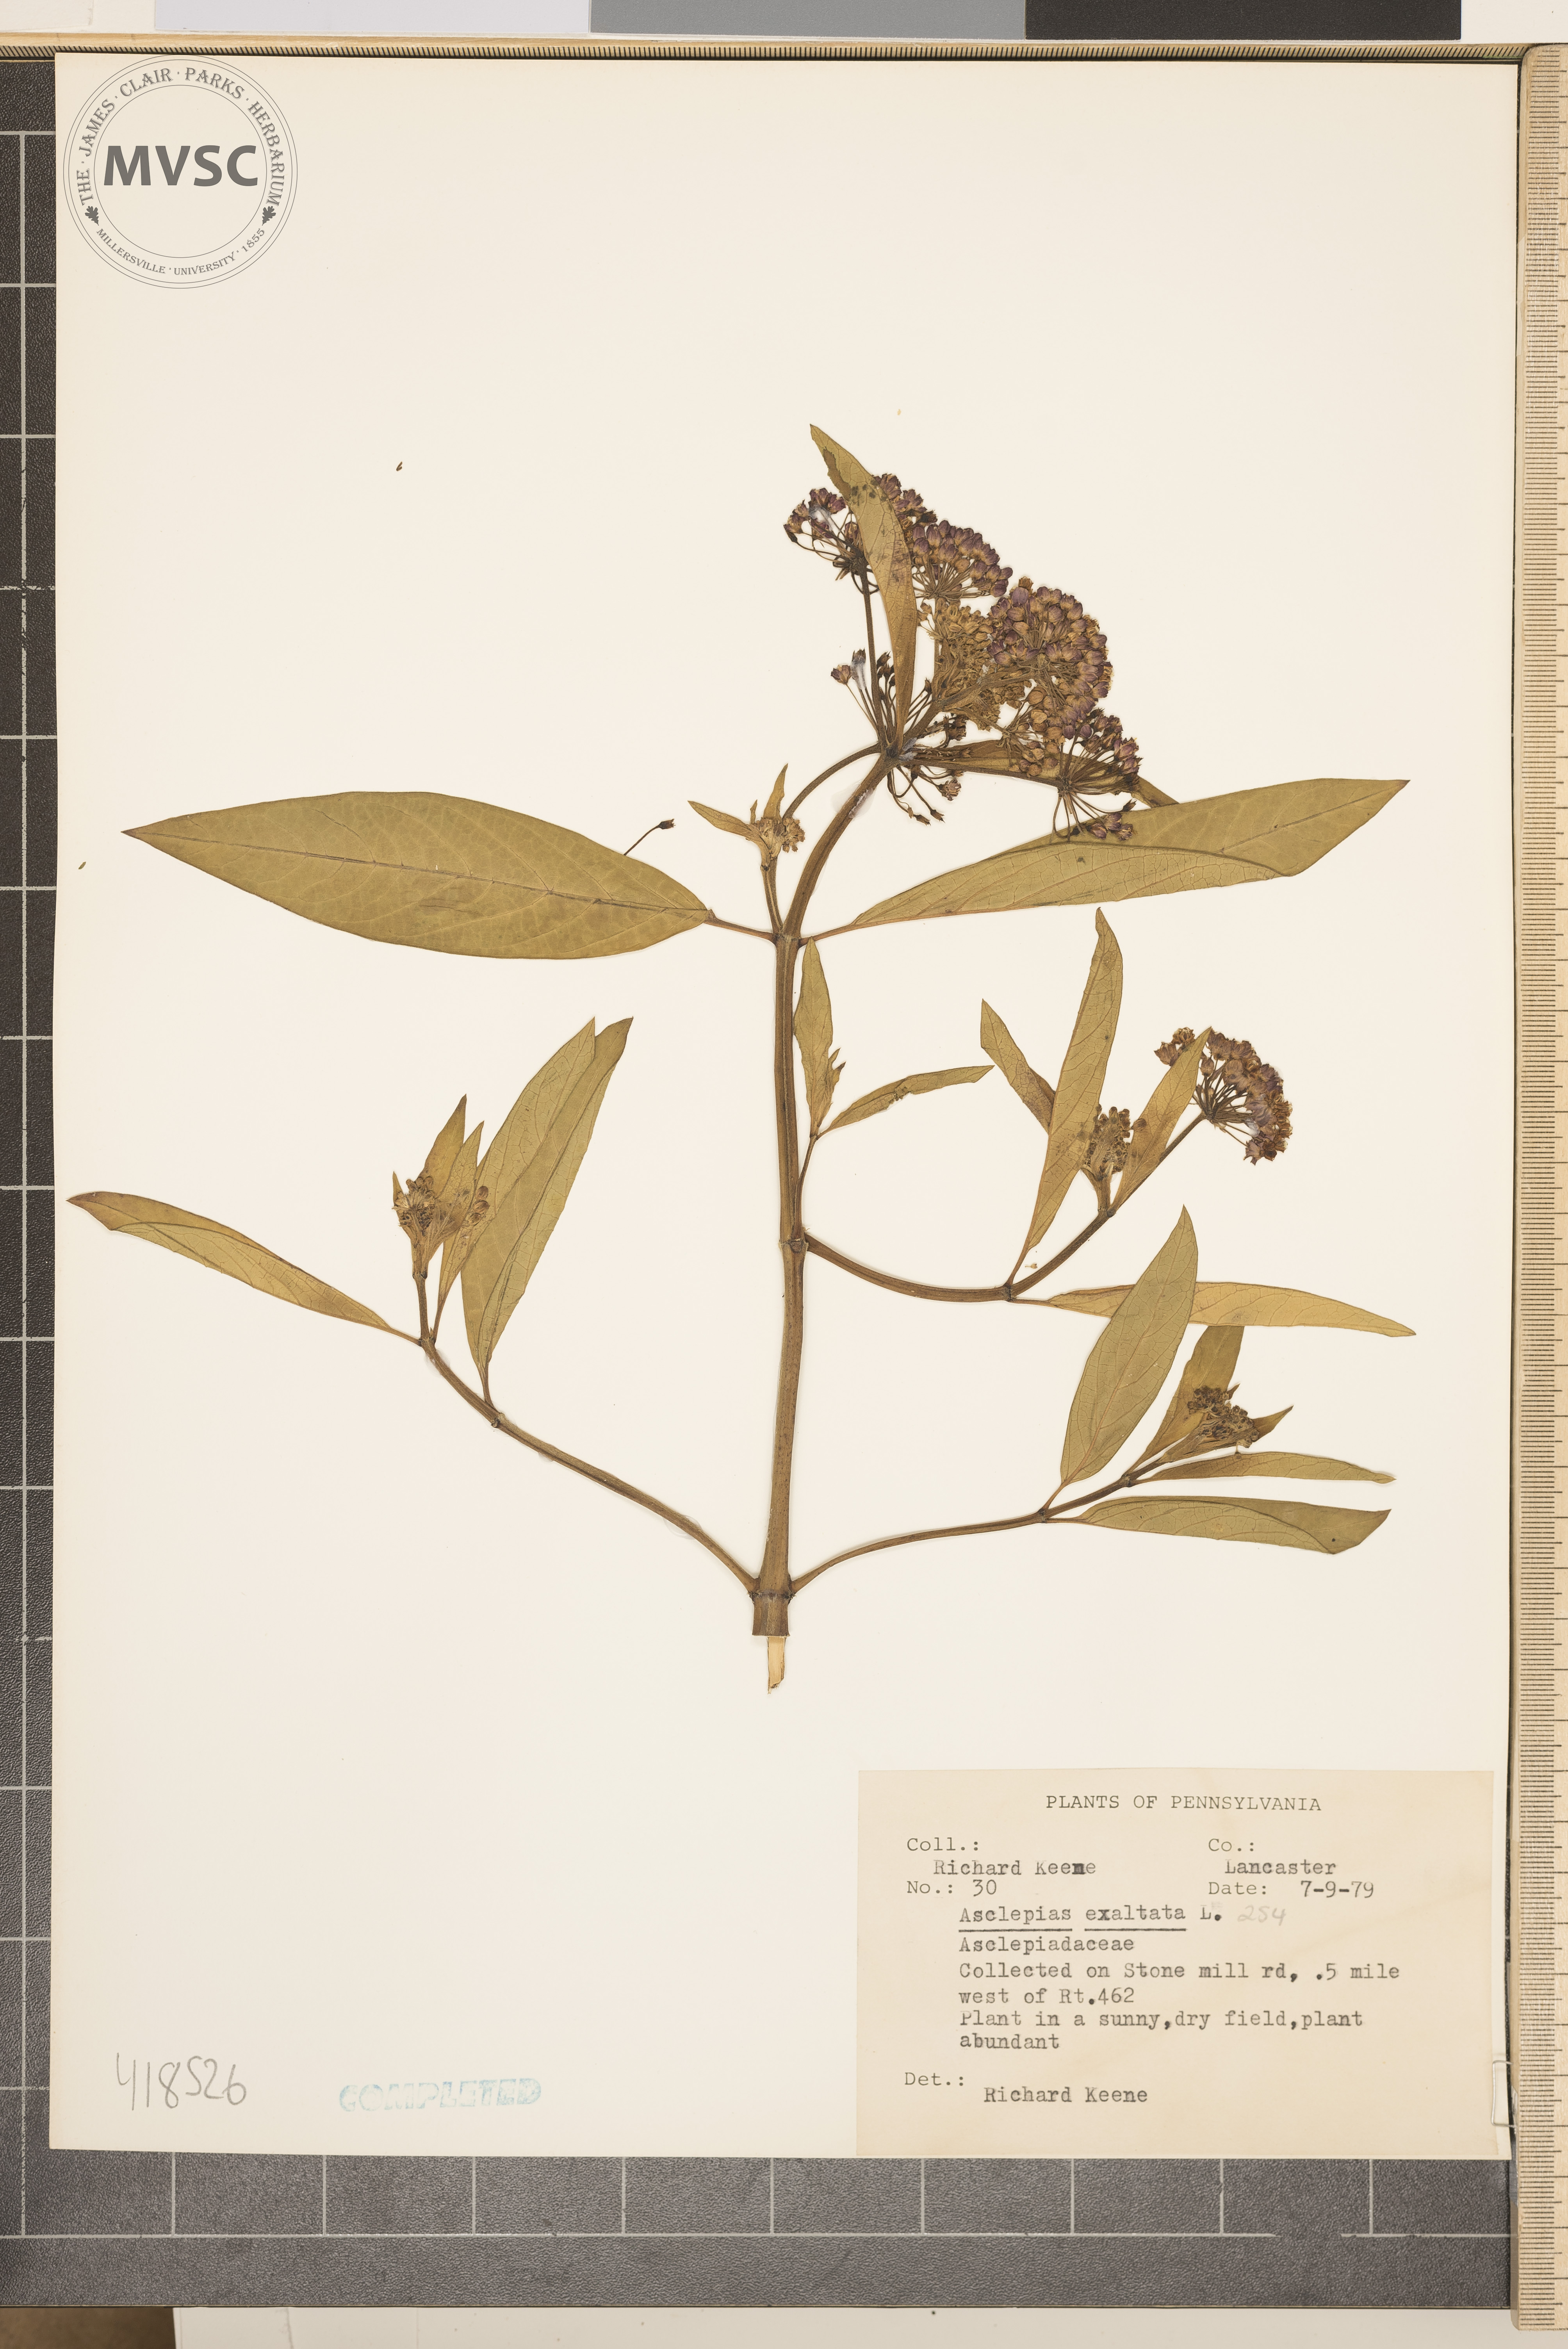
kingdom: Plantae
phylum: Tracheophyta
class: Magnoliopsida
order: Gentianales
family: Apocynaceae
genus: Asclepias
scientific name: Asclepias incarnata
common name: Swamp milkweed
